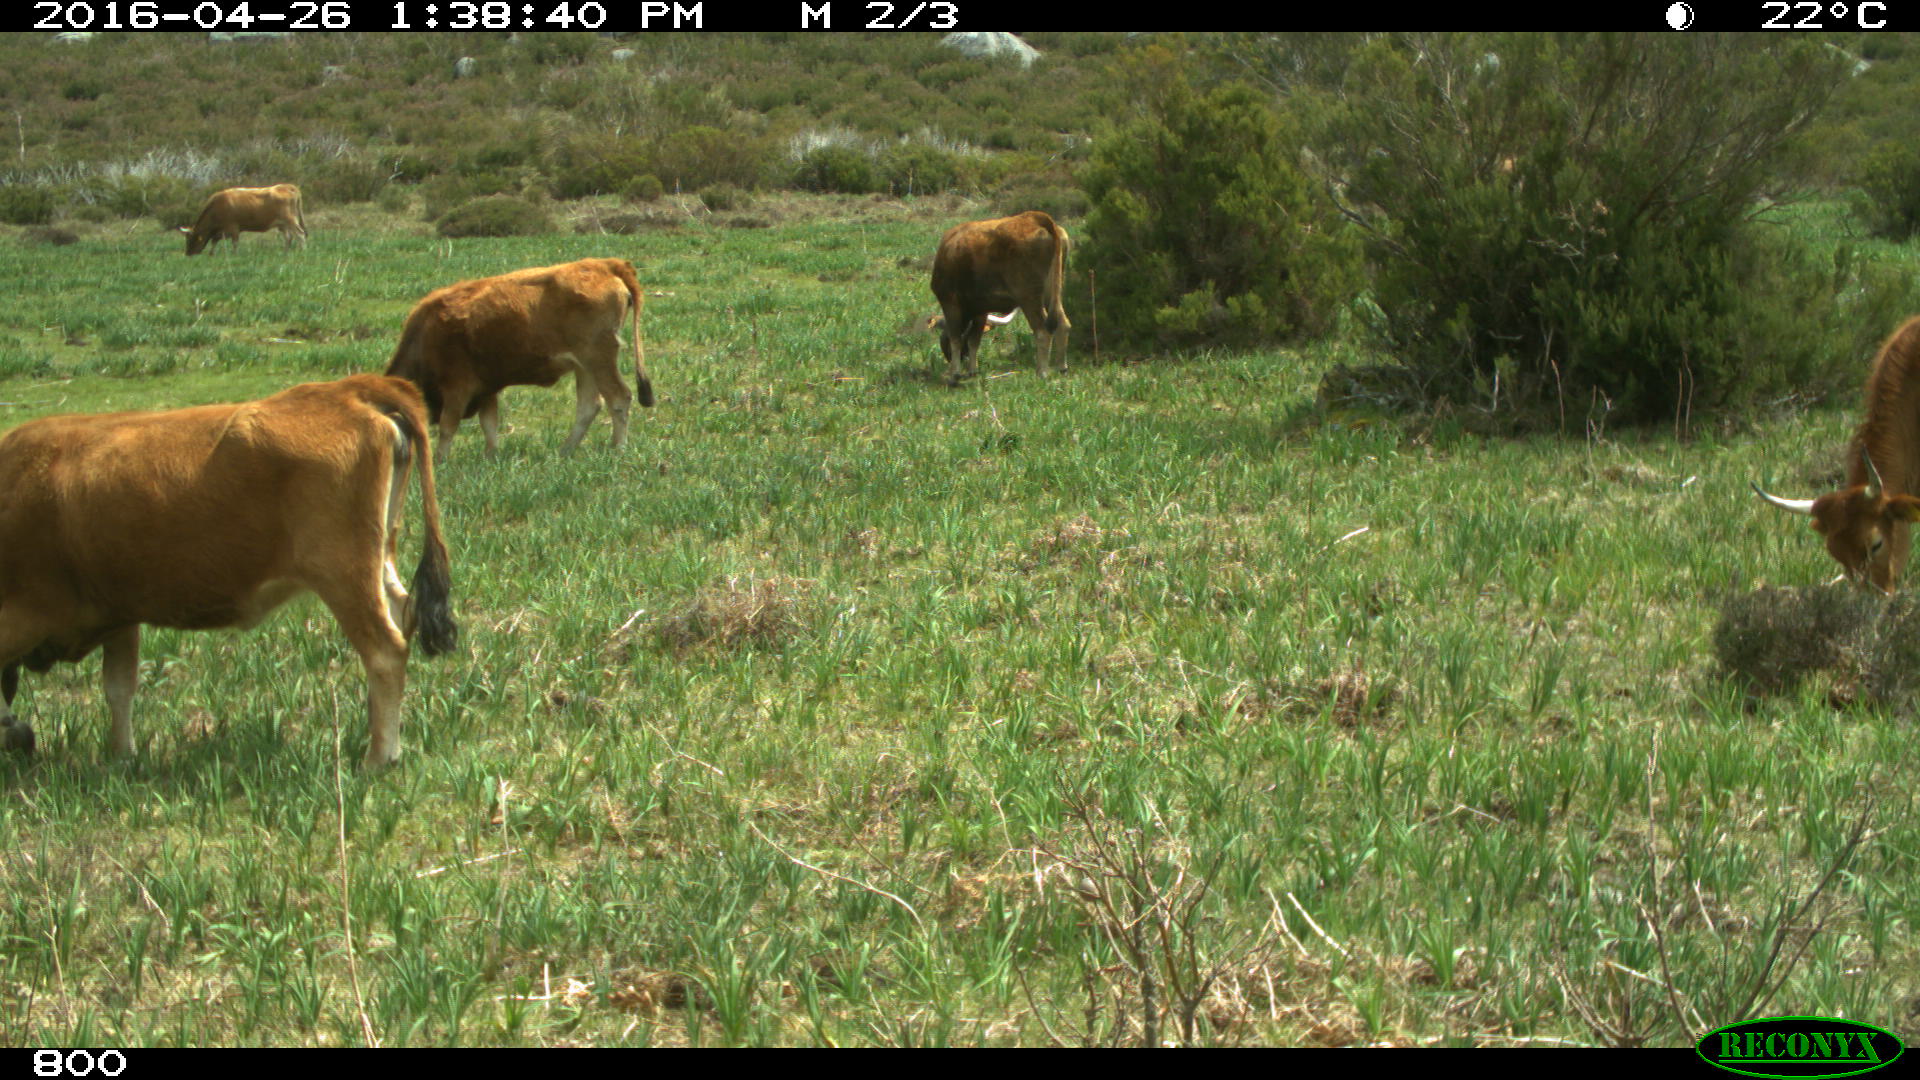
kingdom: Animalia
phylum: Chordata
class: Mammalia
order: Artiodactyla
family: Bovidae
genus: Bos
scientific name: Bos taurus
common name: Domesticated cattle
